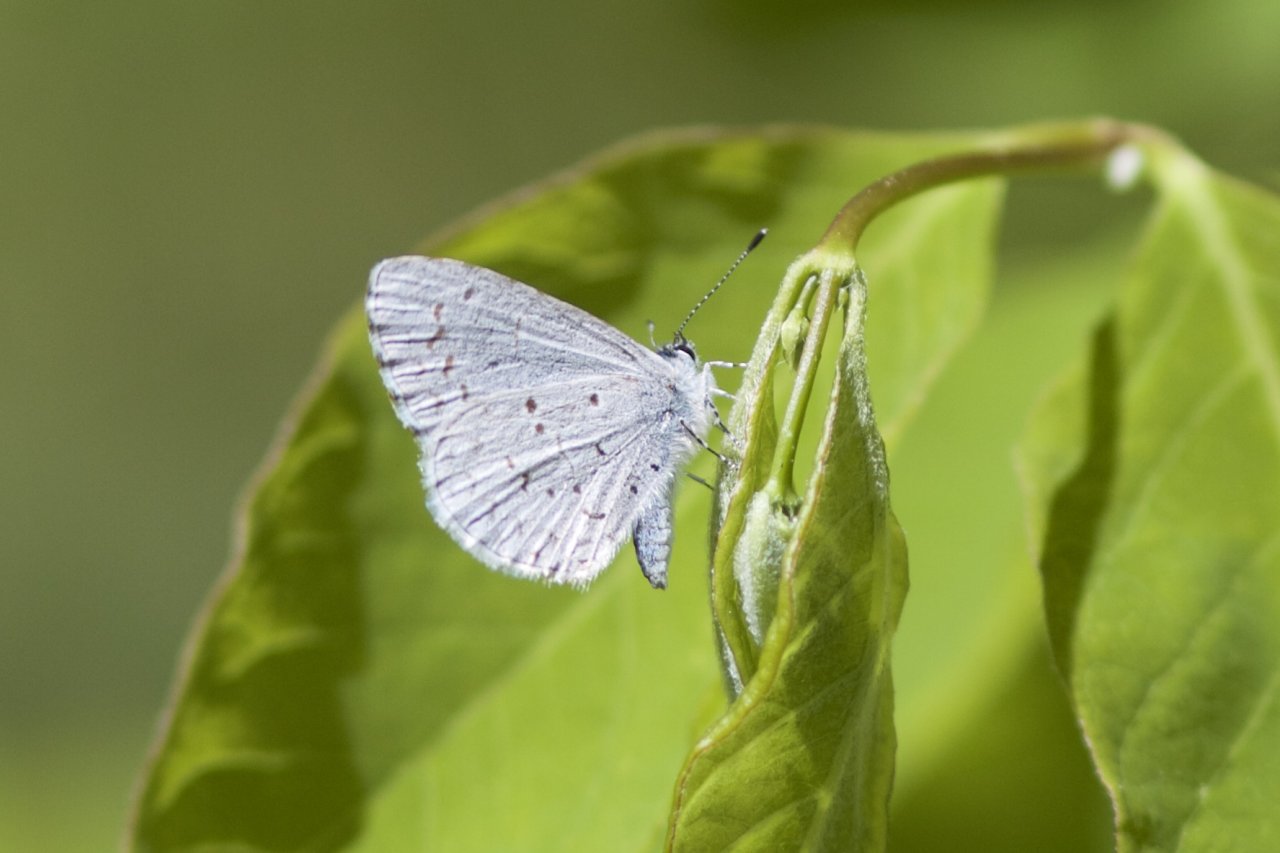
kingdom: Animalia
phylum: Arthropoda
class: Insecta
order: Lepidoptera
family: Lycaenidae
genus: Celastrina
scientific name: Celastrina lucia
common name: Northern Spring Azure
